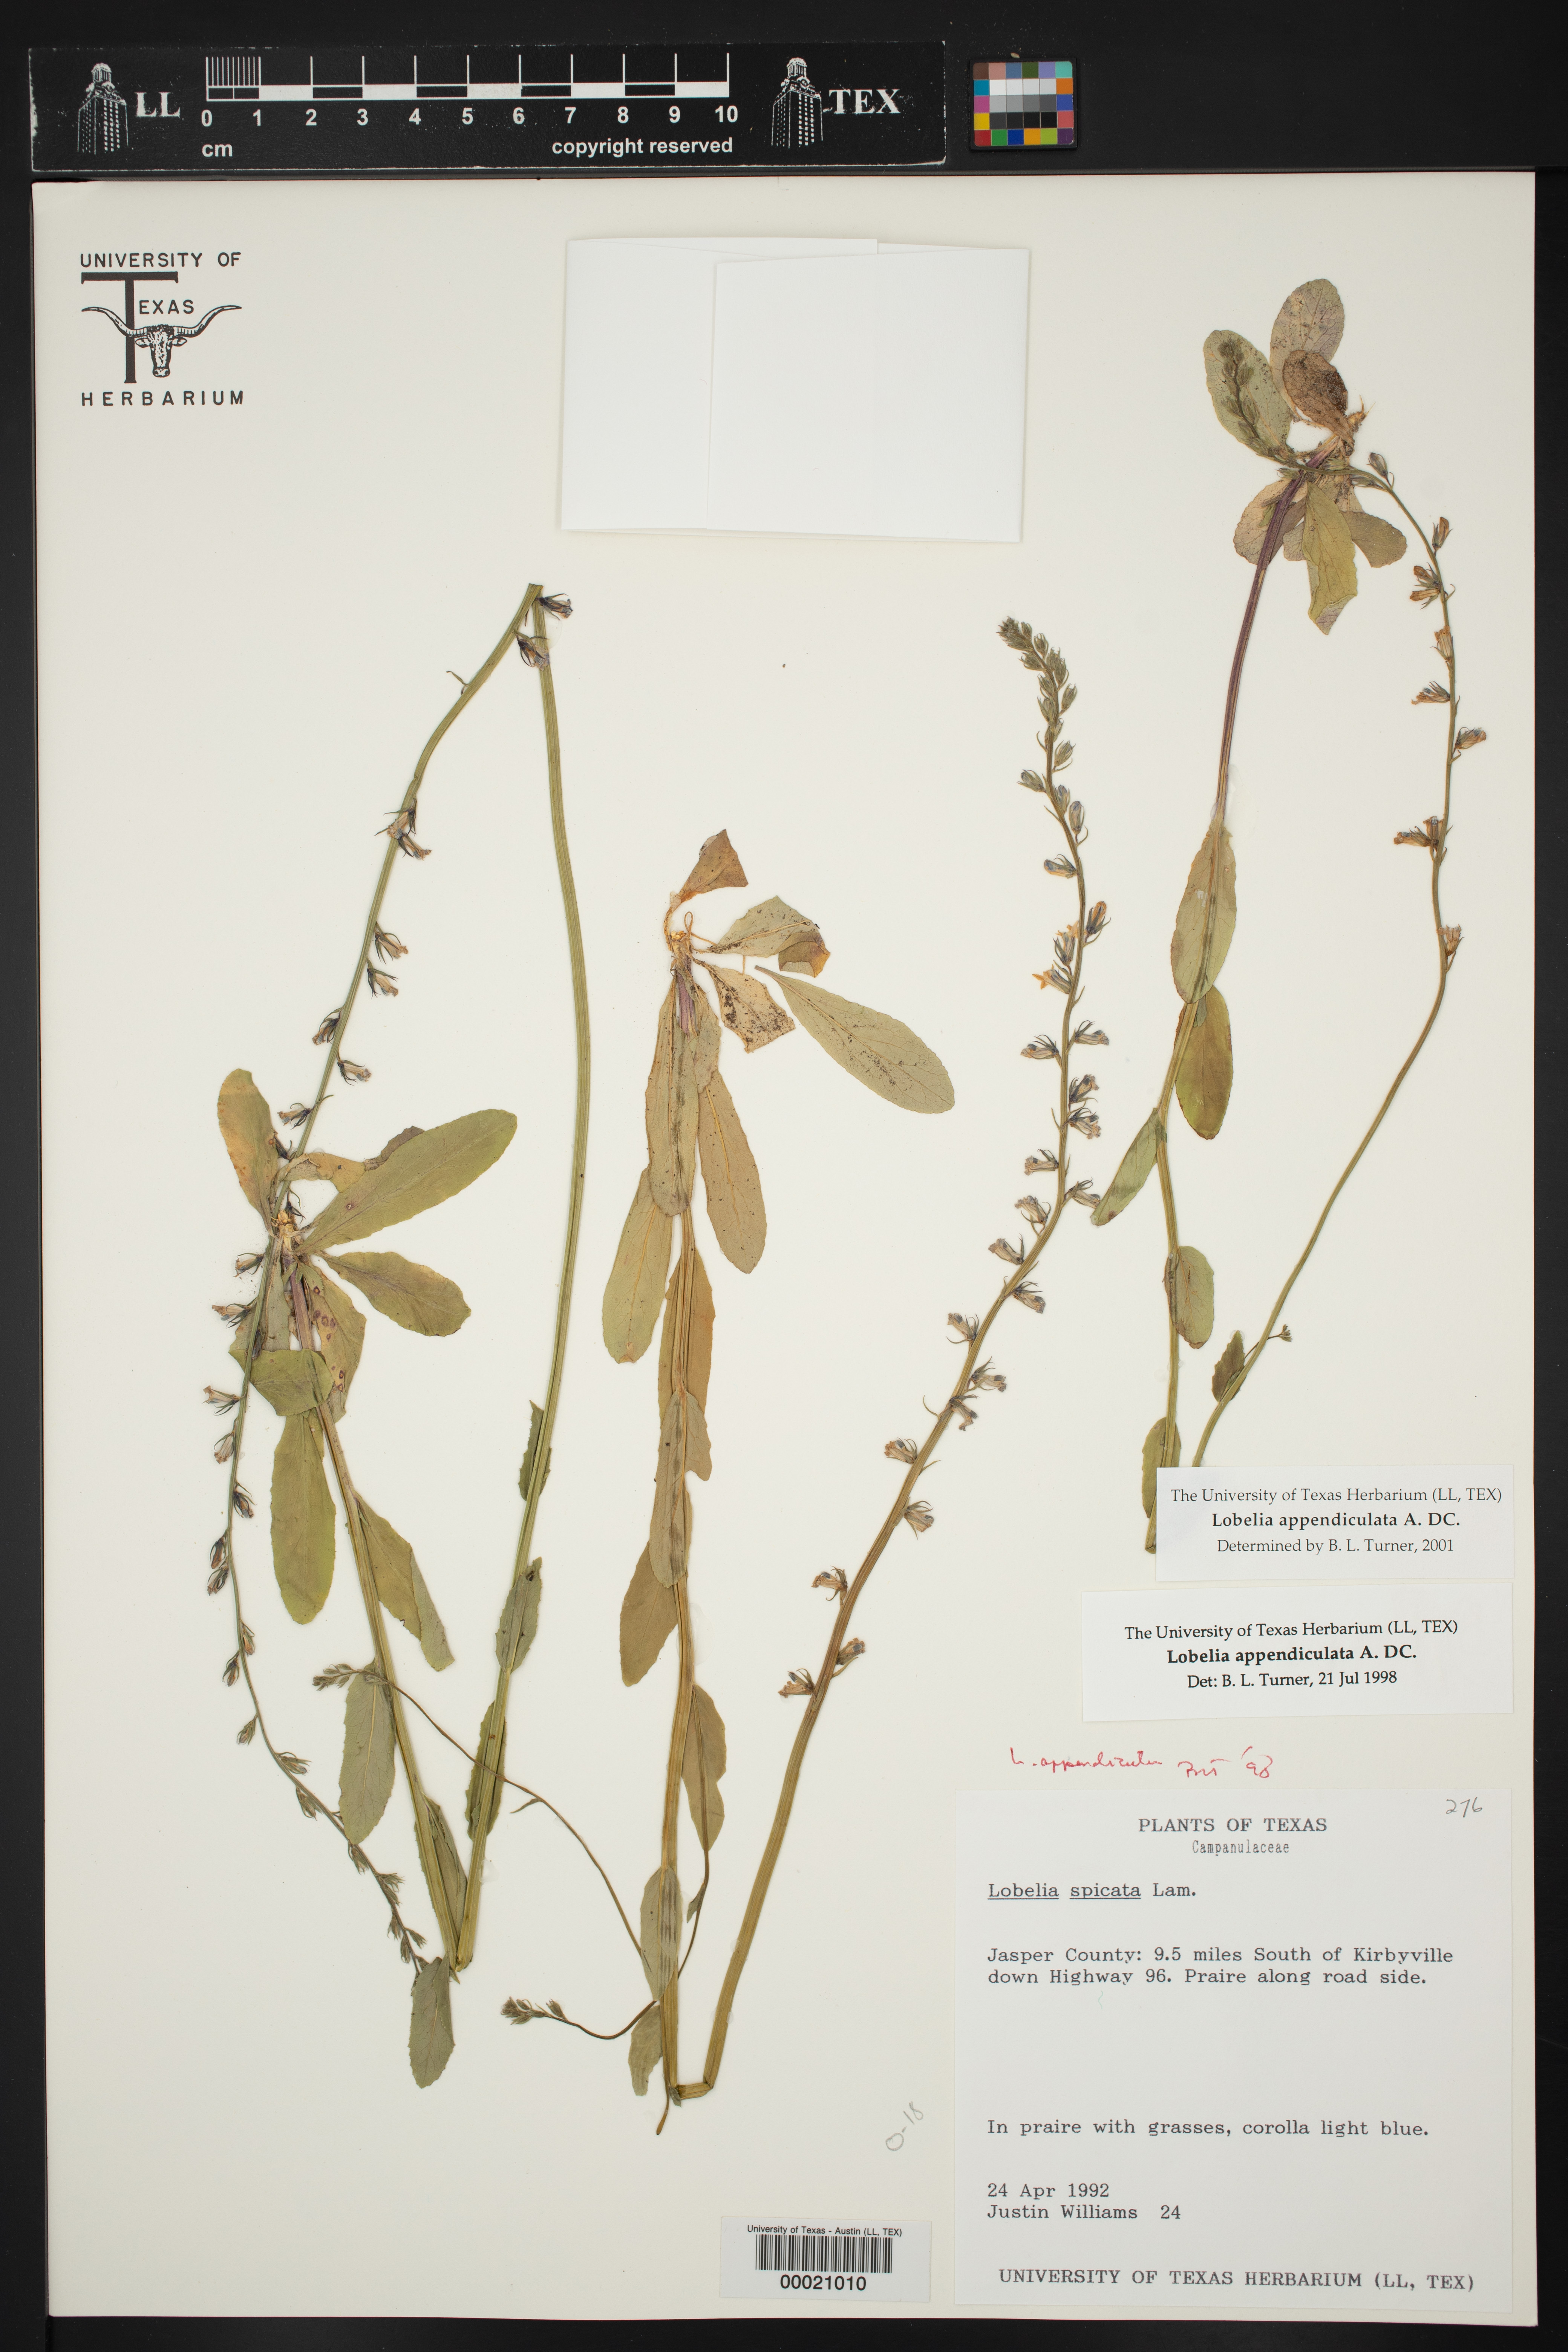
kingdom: Plantae
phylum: Tracheophyta
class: Magnoliopsida
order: Asterales
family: Campanulaceae
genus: Lobelia
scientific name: Lobelia appendiculata
